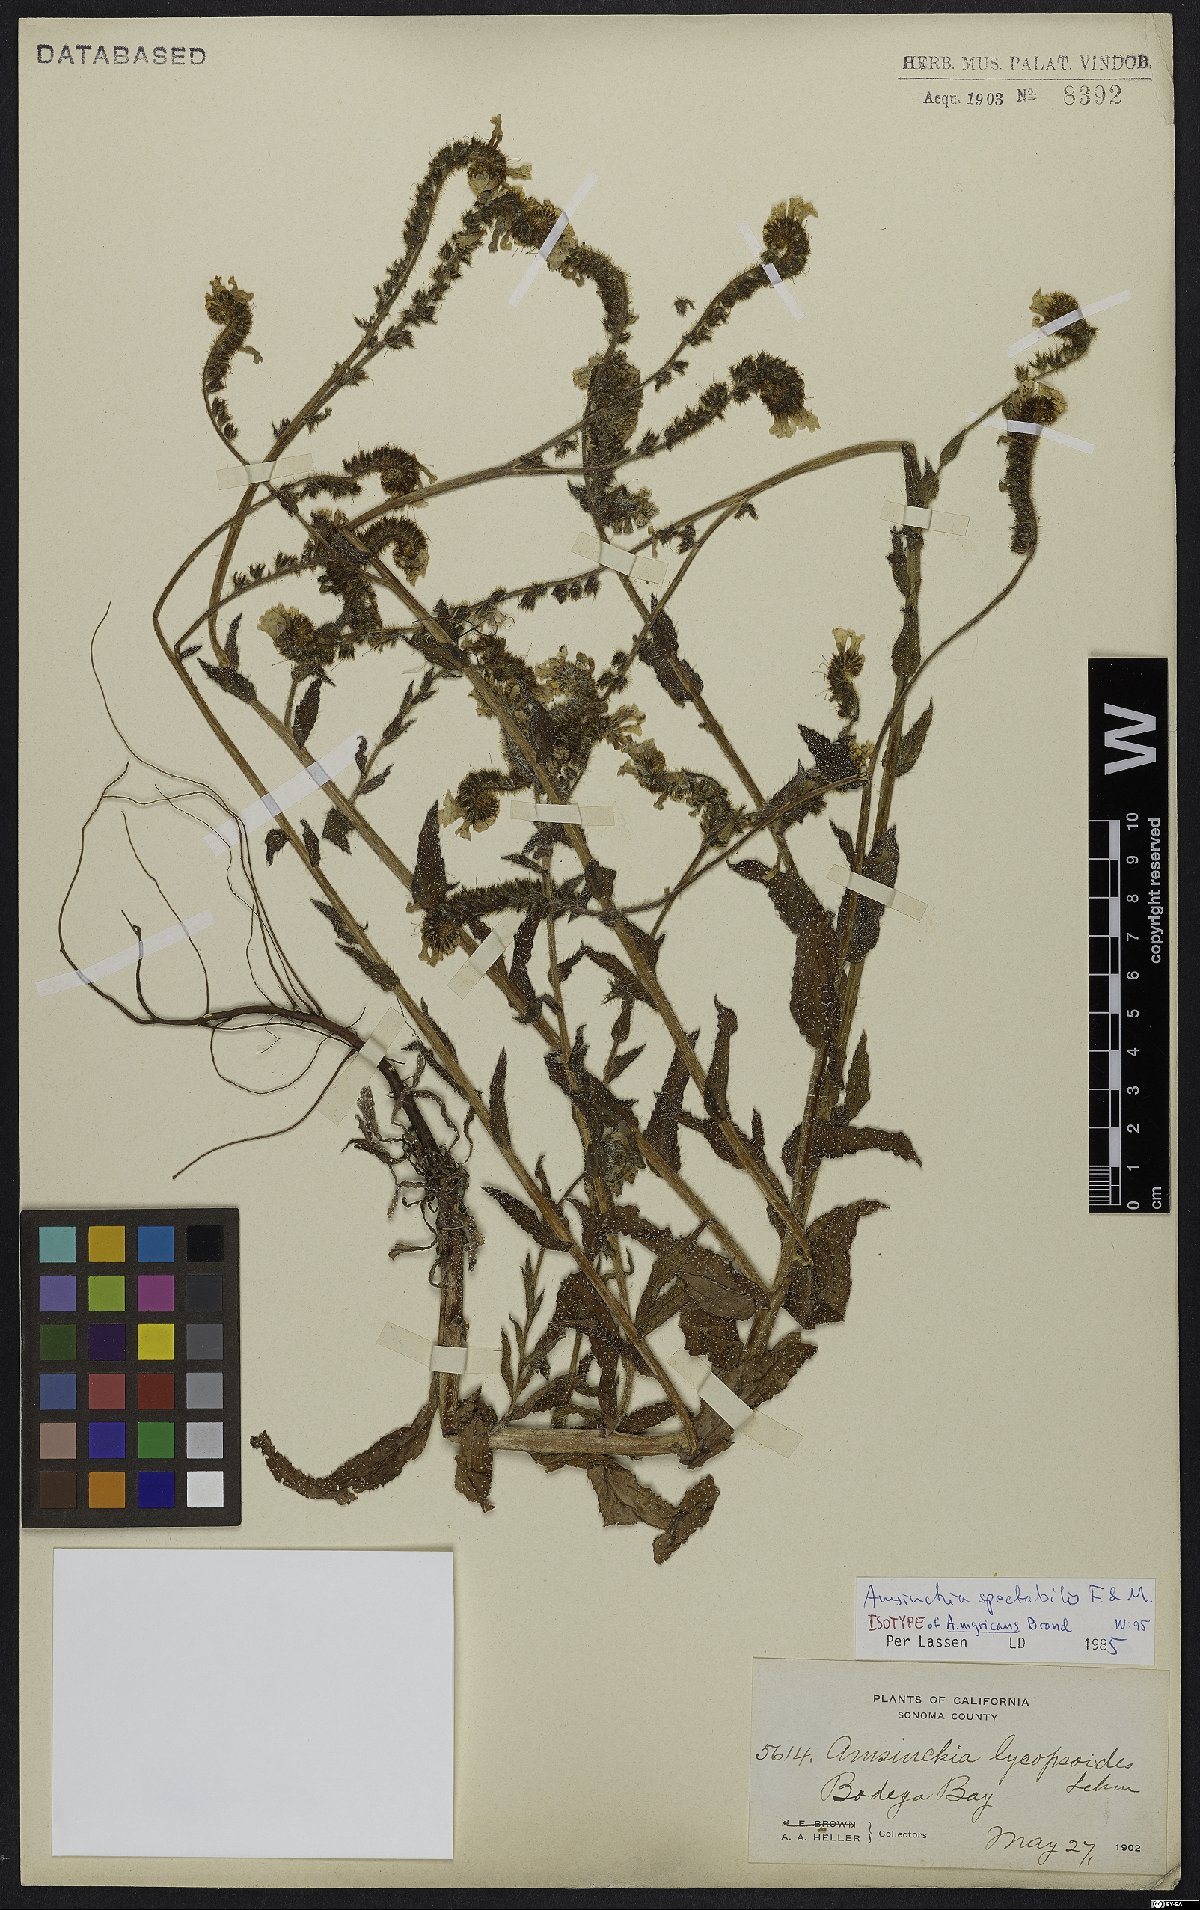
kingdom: Plantae
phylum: Tracheophyta
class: Magnoliopsida
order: Boraginales
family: Boraginaceae
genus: Amsinckia
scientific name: Amsinckia spectabilis
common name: Seaside fiddleneck
